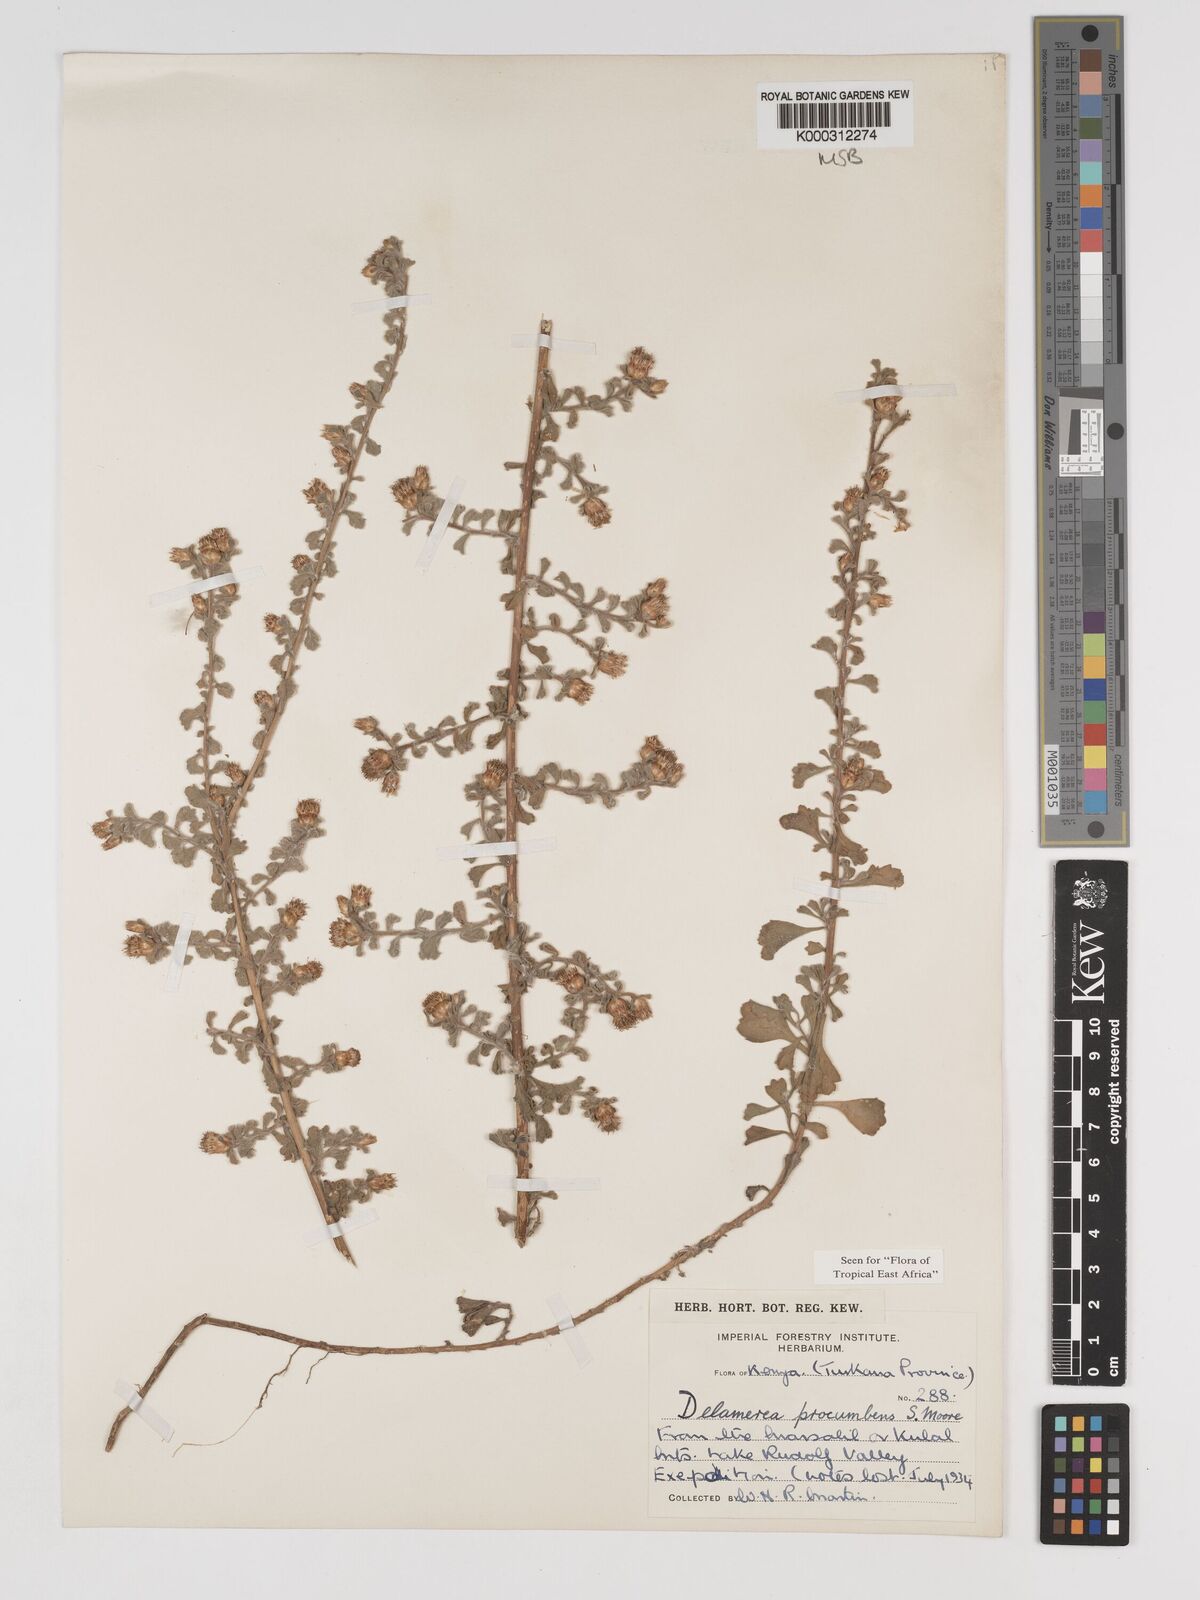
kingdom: Plantae
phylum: Tracheophyta
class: Magnoliopsida
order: Asterales
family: Asteraceae
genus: Delamerea
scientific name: Delamerea procumbens
